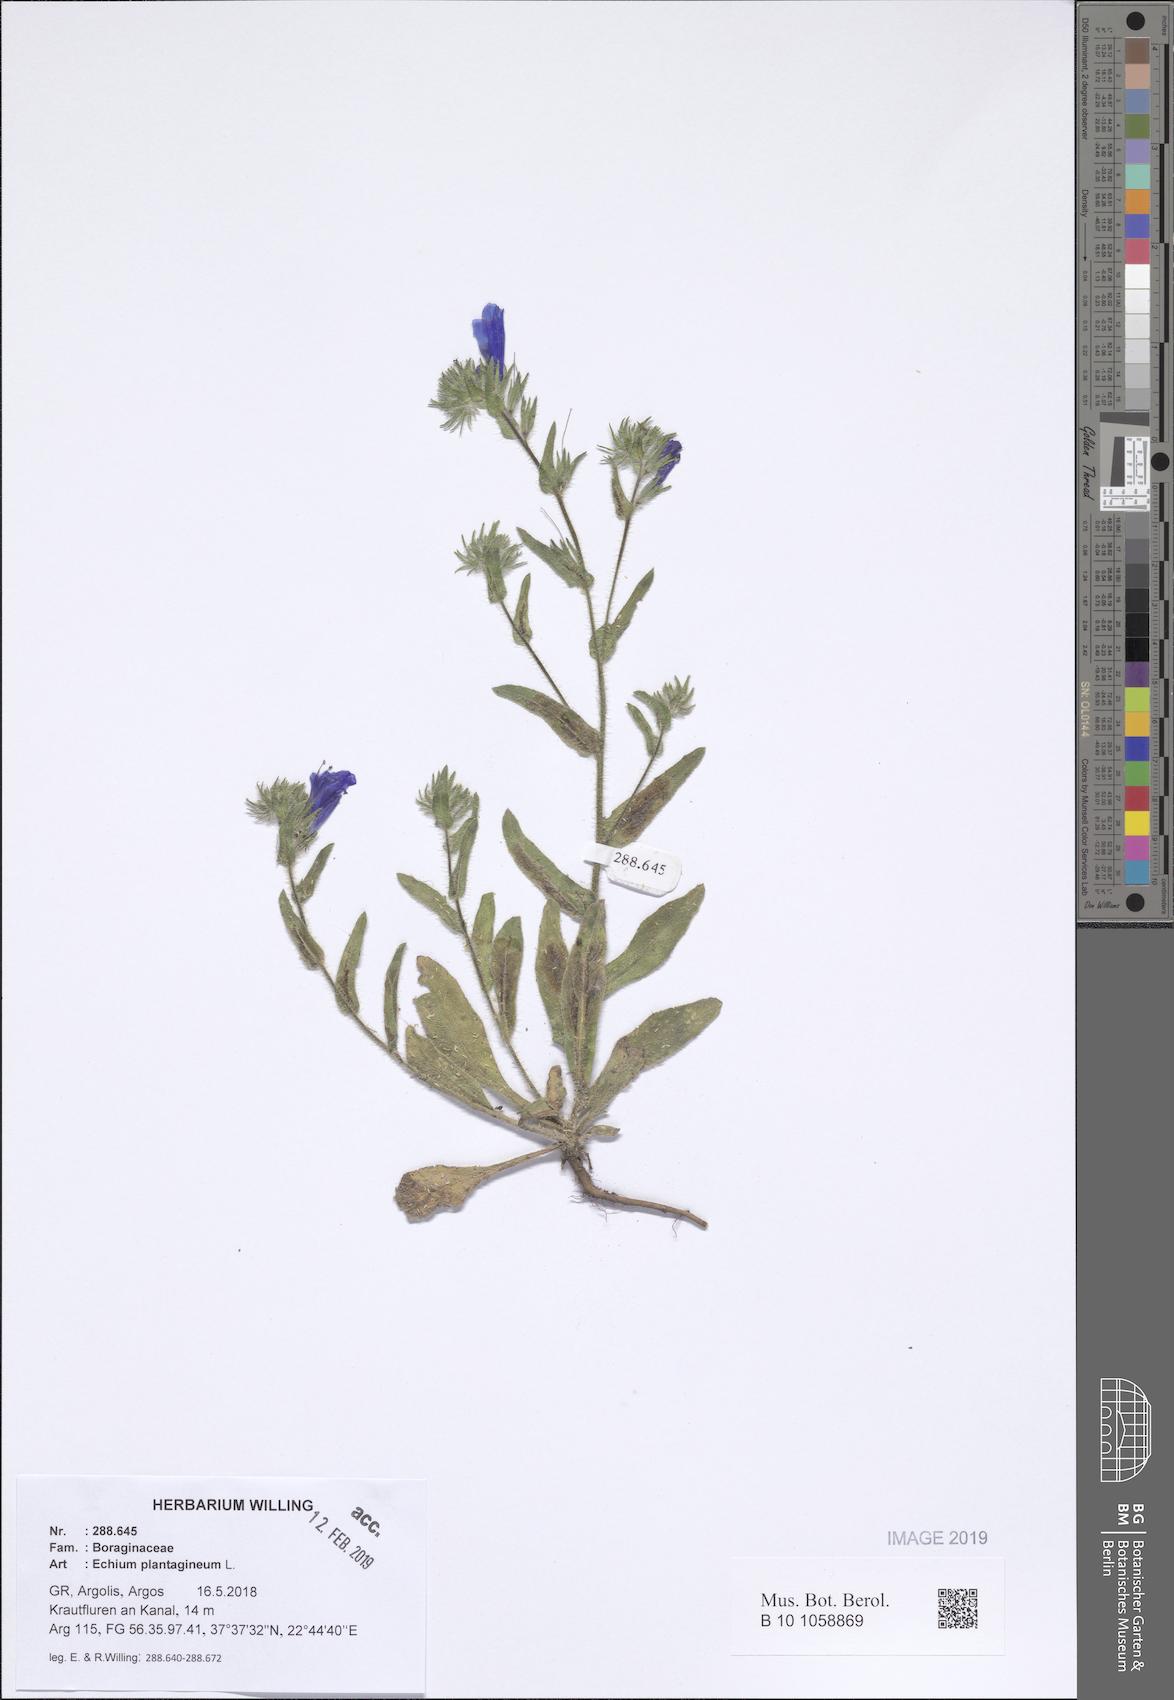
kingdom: Plantae
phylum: Tracheophyta
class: Magnoliopsida
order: Boraginales
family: Boraginaceae
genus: Echium
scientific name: Echium plantagineum
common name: Purple viper's-bugloss
